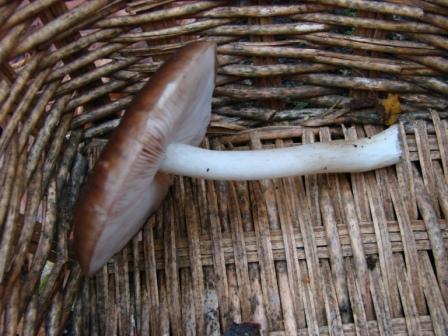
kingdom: Fungi
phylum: Basidiomycota
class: Agaricomycetes
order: Agaricales
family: Pluteaceae
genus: Pluteus
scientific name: Pluteus cervinus
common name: sodfarvet skærmhat
